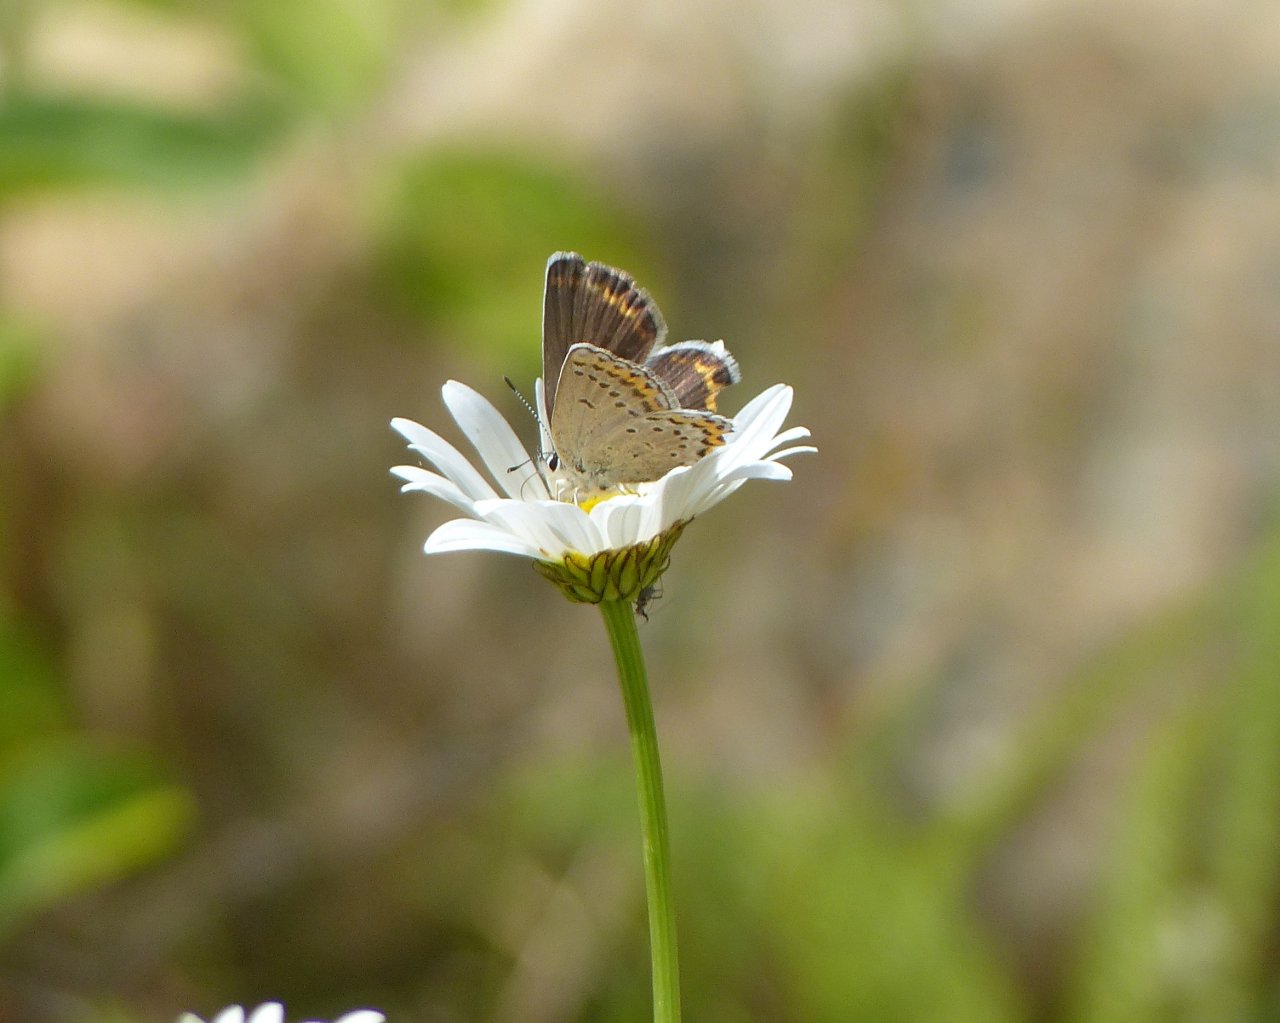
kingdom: Animalia
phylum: Arthropoda
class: Insecta
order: Lepidoptera
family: Lycaenidae
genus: Lycaeides
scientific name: Lycaeides melissa
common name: Melissa Blue
